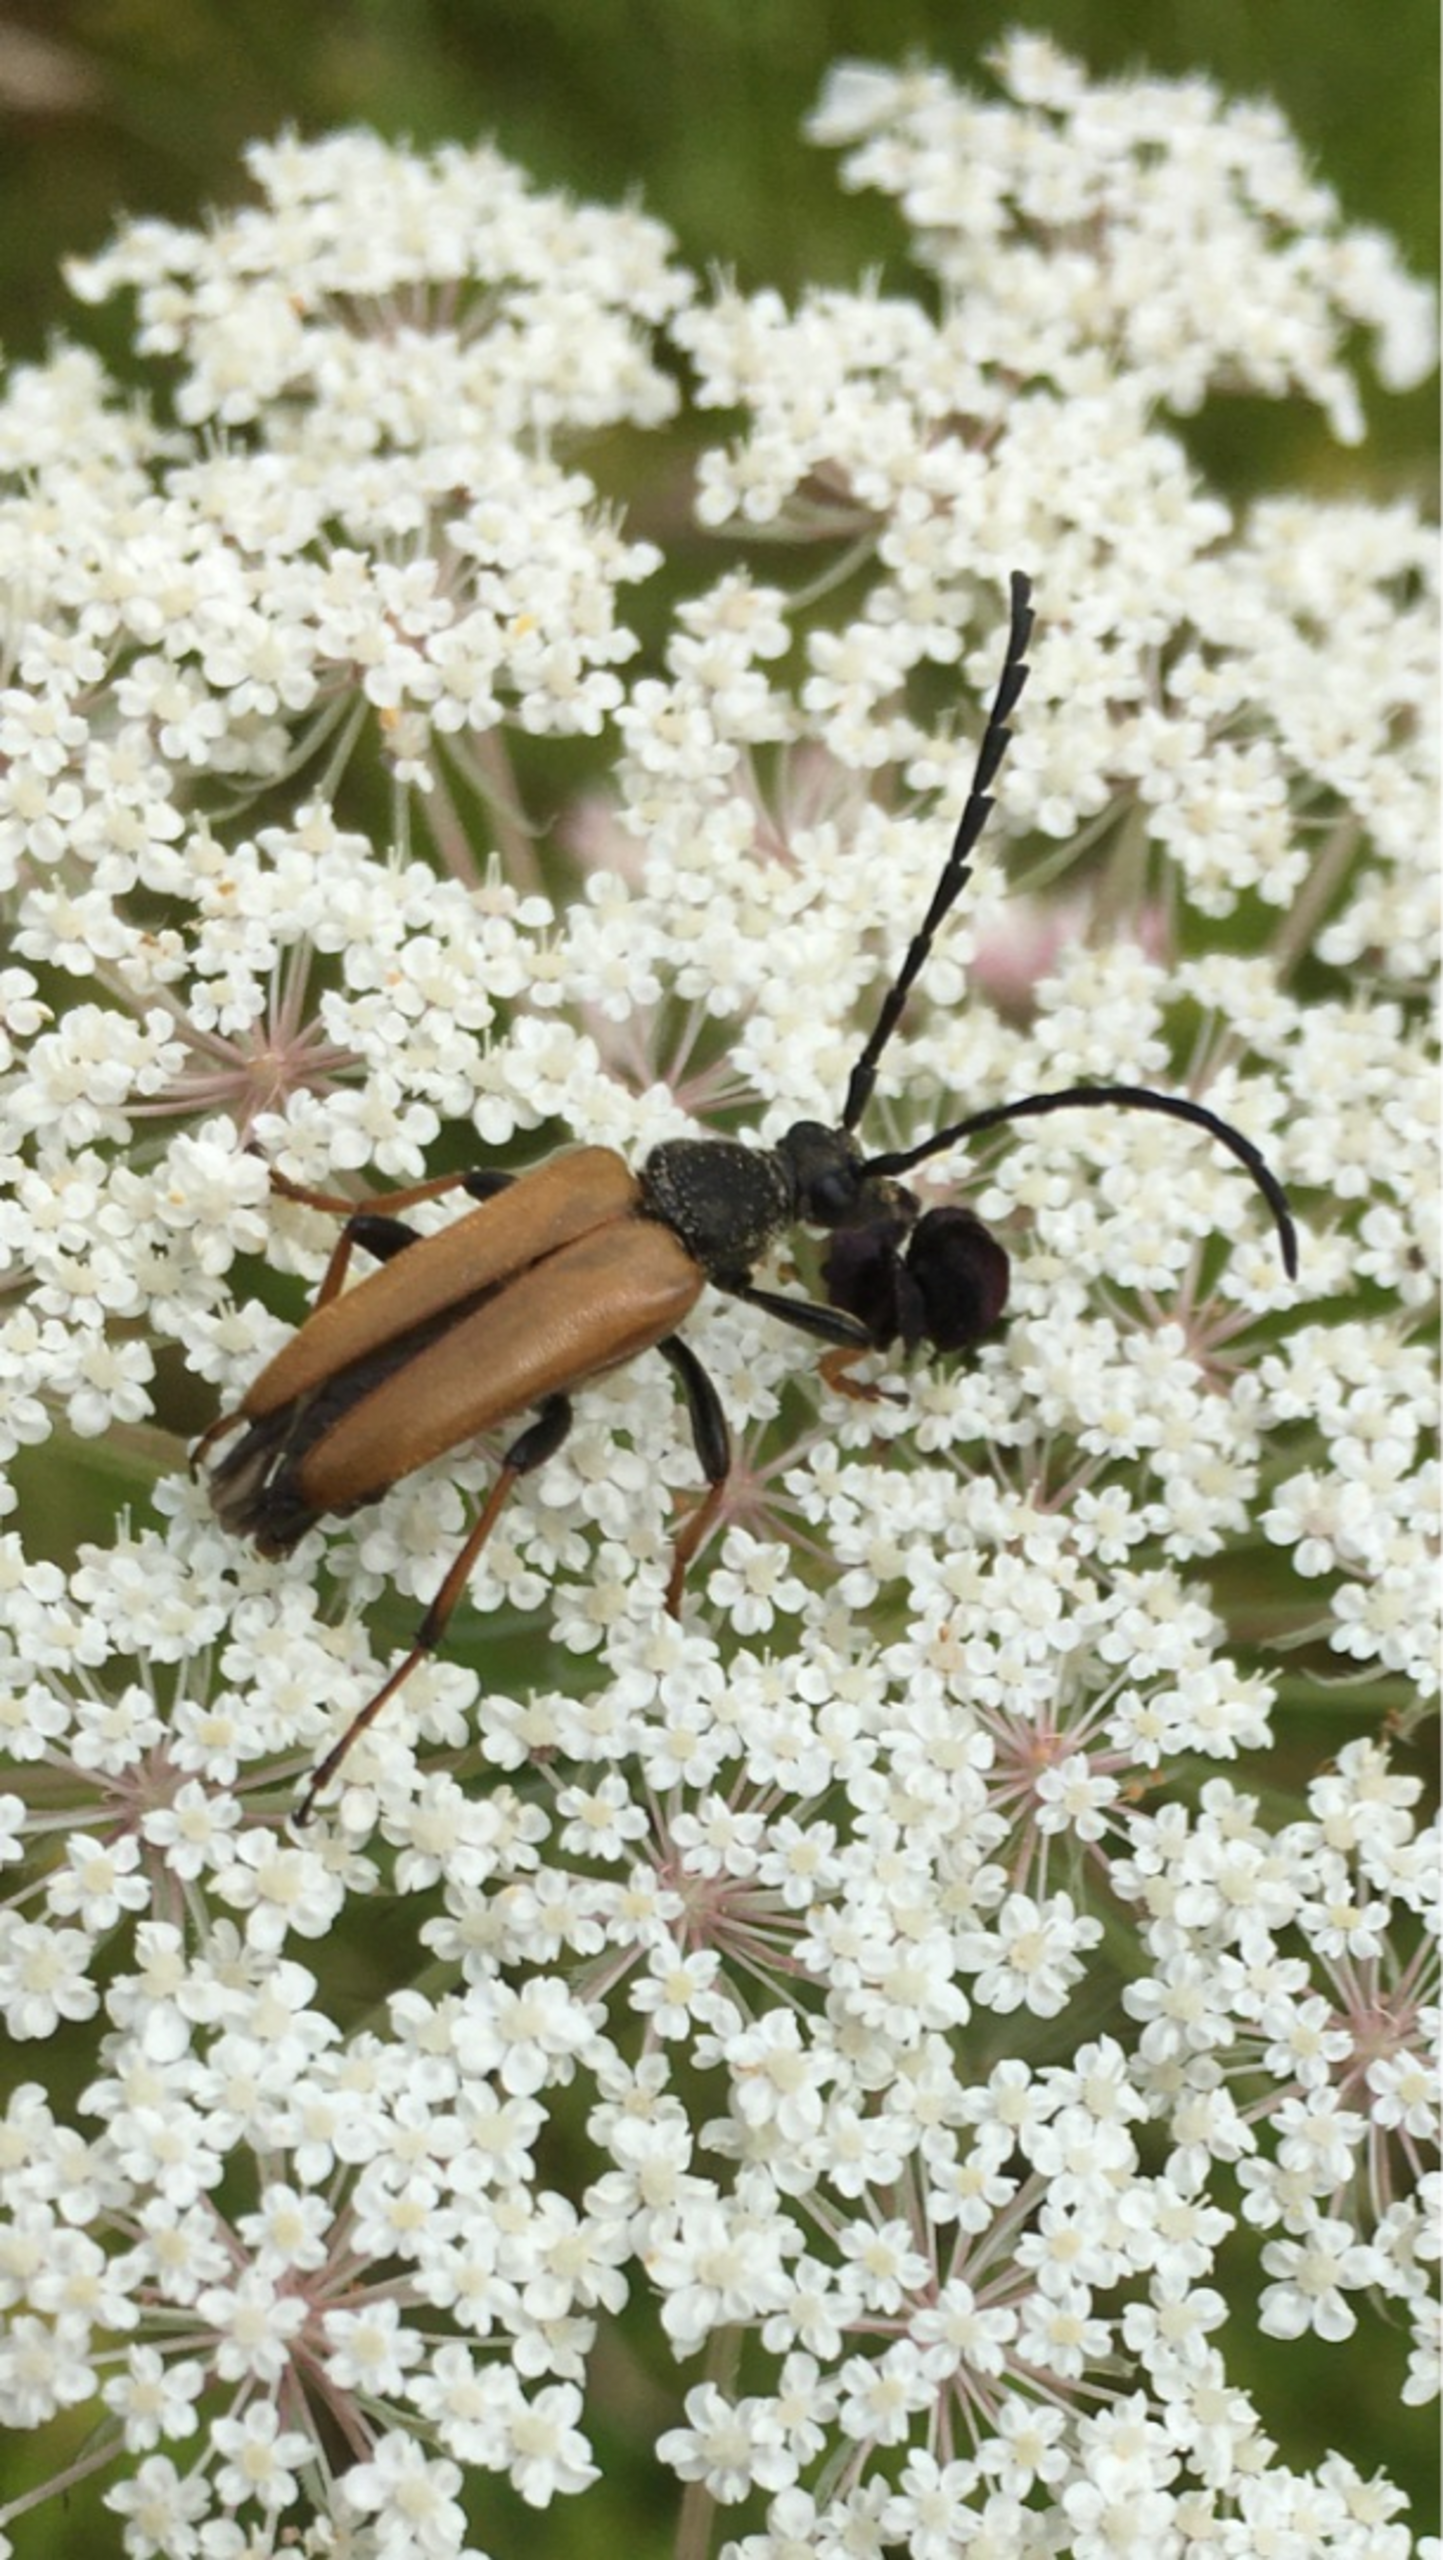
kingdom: Animalia
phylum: Arthropoda
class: Insecta
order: Coleoptera
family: Cerambycidae
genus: Stictoleptura
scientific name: Stictoleptura rubra
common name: Rød blomsterbuk
